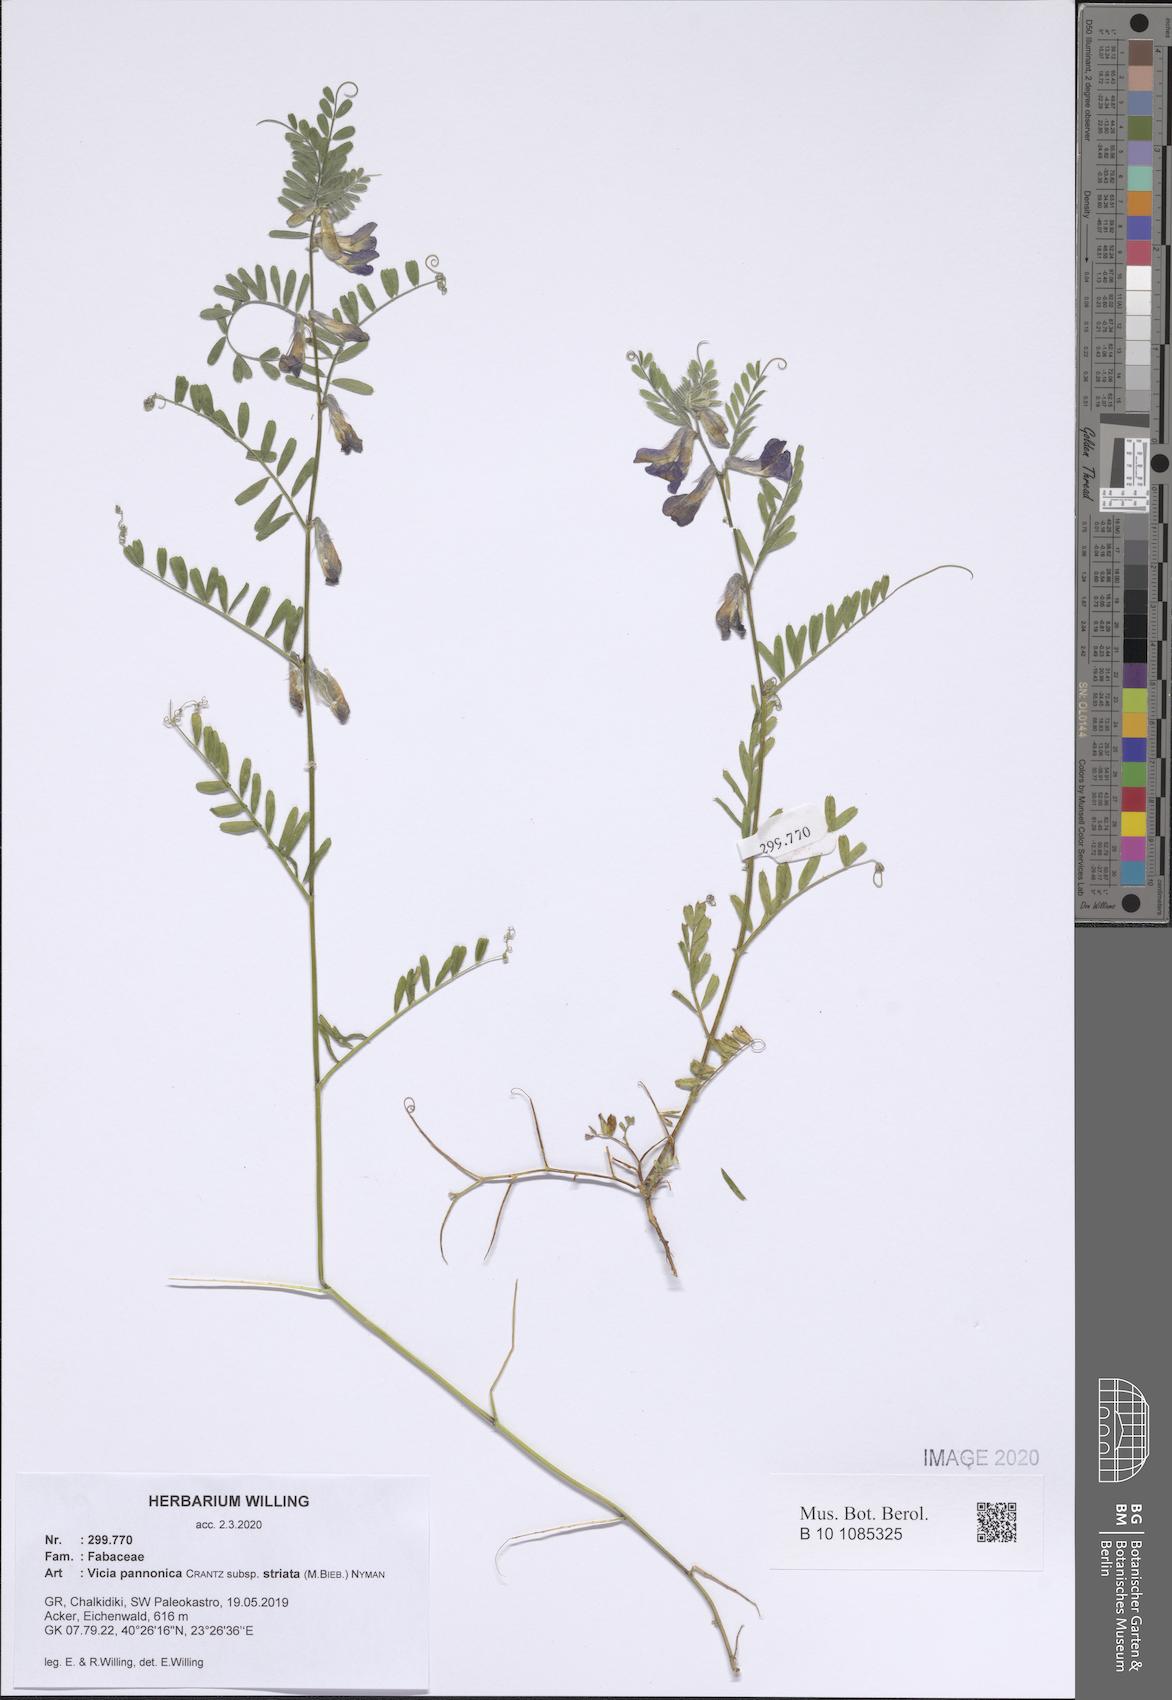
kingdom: Plantae
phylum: Tracheophyta
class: Magnoliopsida
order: Fabales
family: Fabaceae
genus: Vicia
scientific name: Vicia pannonica
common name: Hungarian vetch
